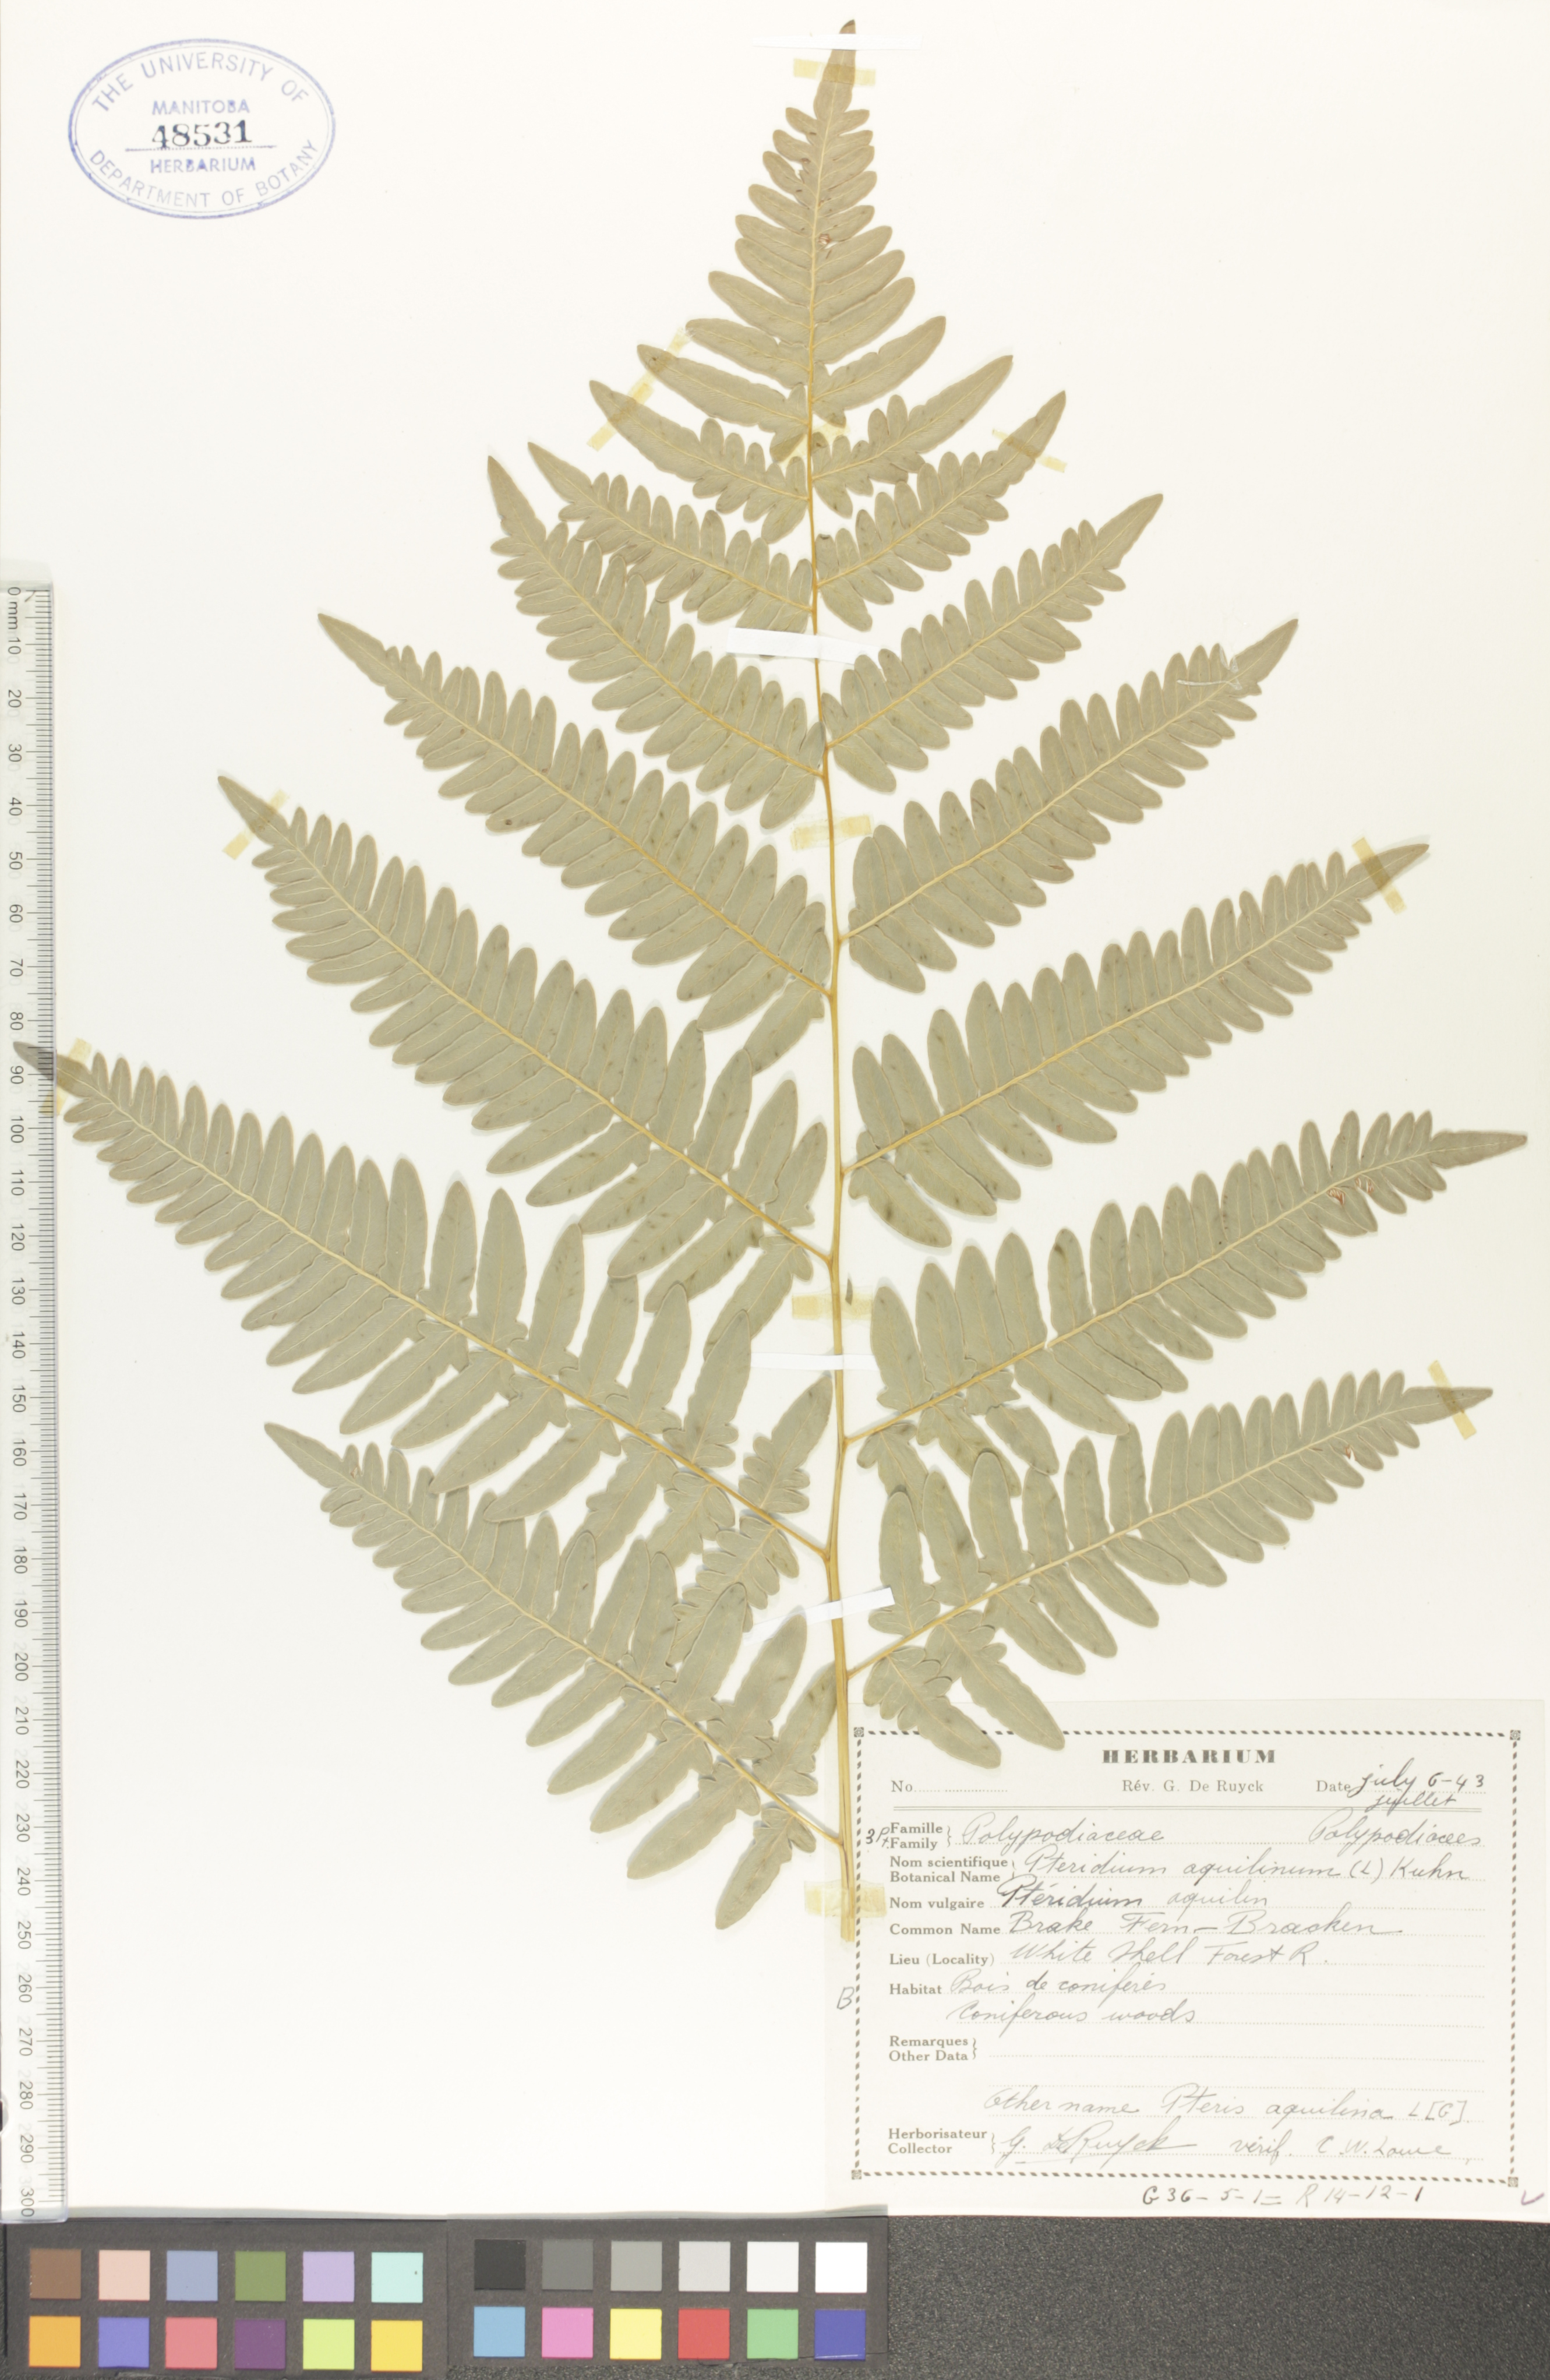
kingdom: Plantae
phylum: Tracheophyta
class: Polypodiopsida
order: Polypodiales
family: Dennstaedtiaceae
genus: Pteridium
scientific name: Pteridium aquilinum
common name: Bracken
